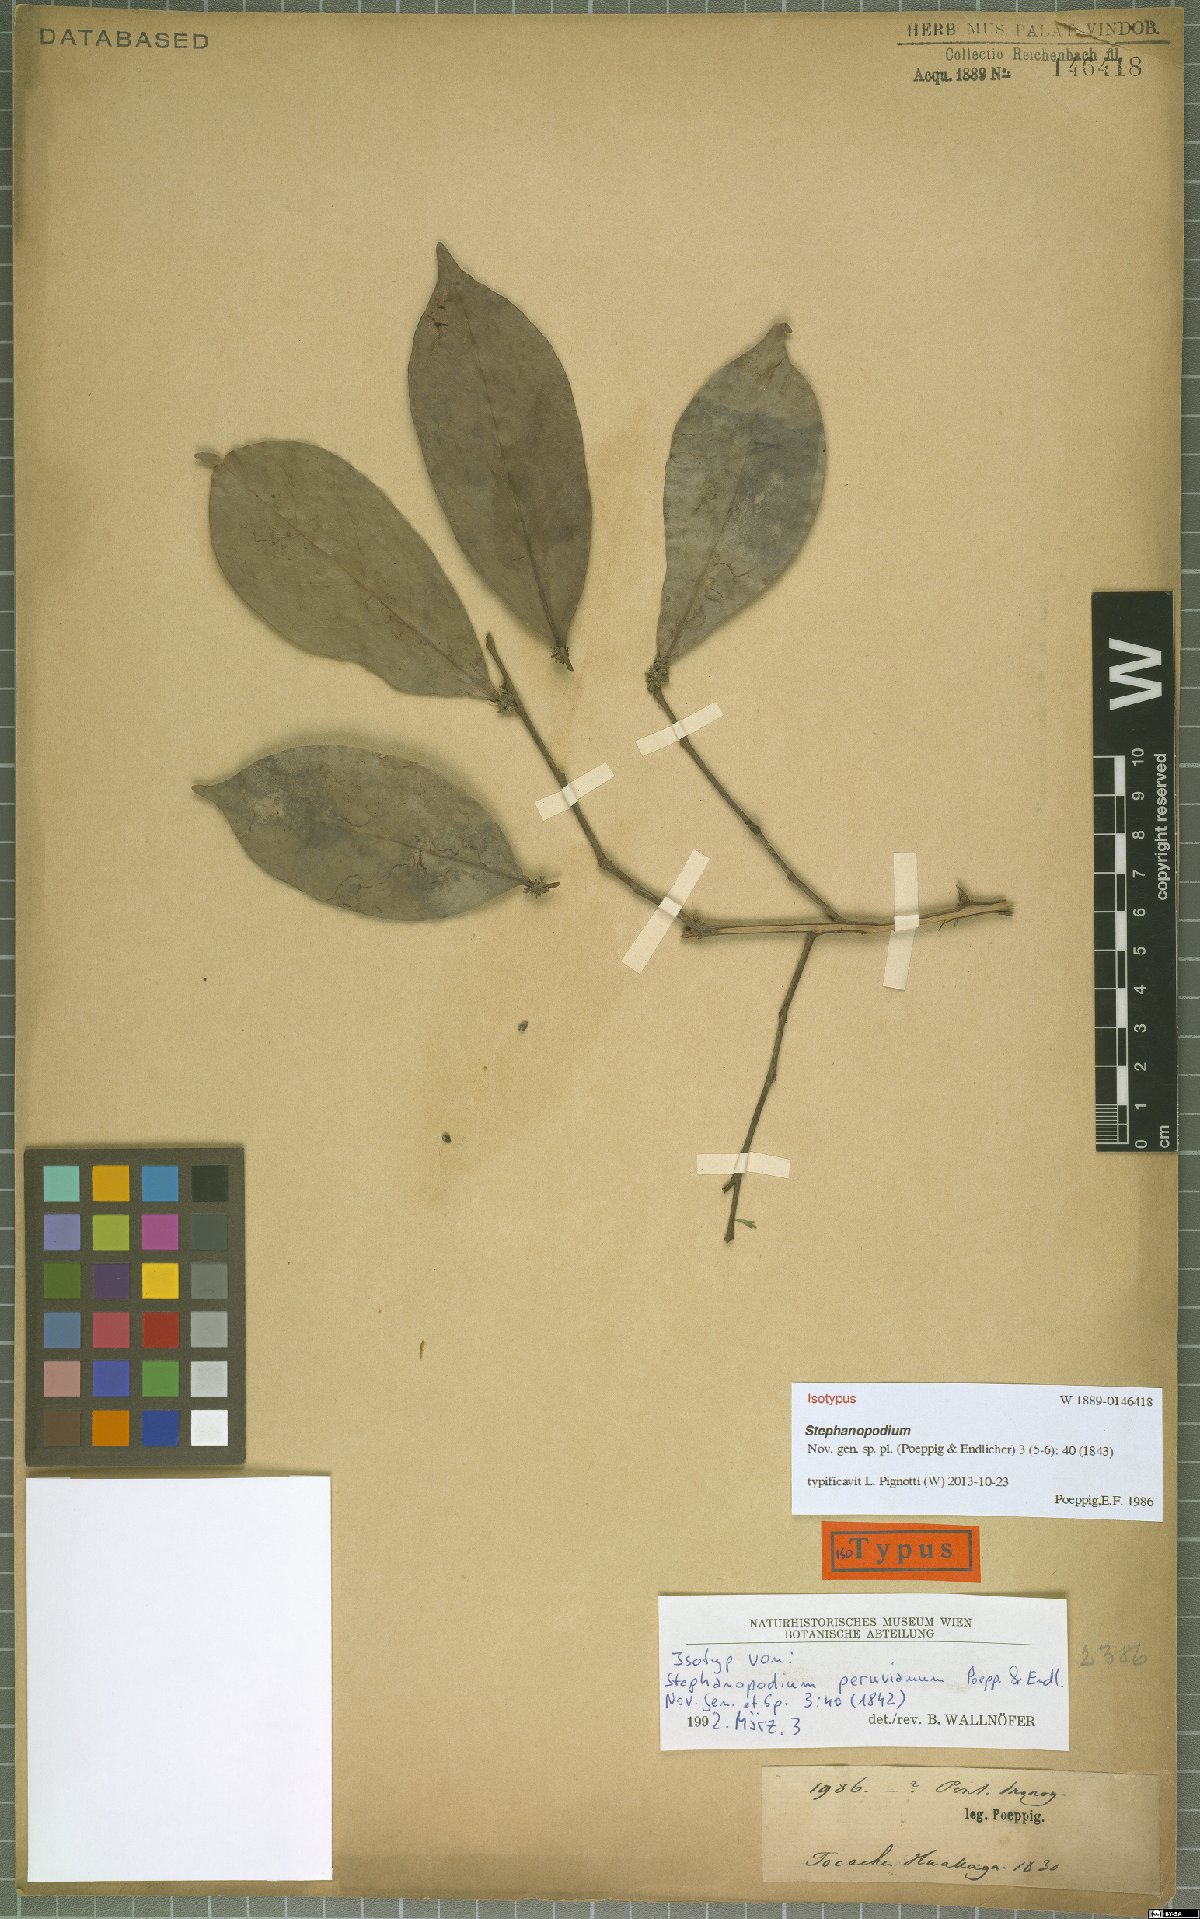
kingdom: Plantae
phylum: Tracheophyta
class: Magnoliopsida
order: Malpighiales
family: Dichapetalaceae
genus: Stephanopodium
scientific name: Stephanopodium peruvianum
